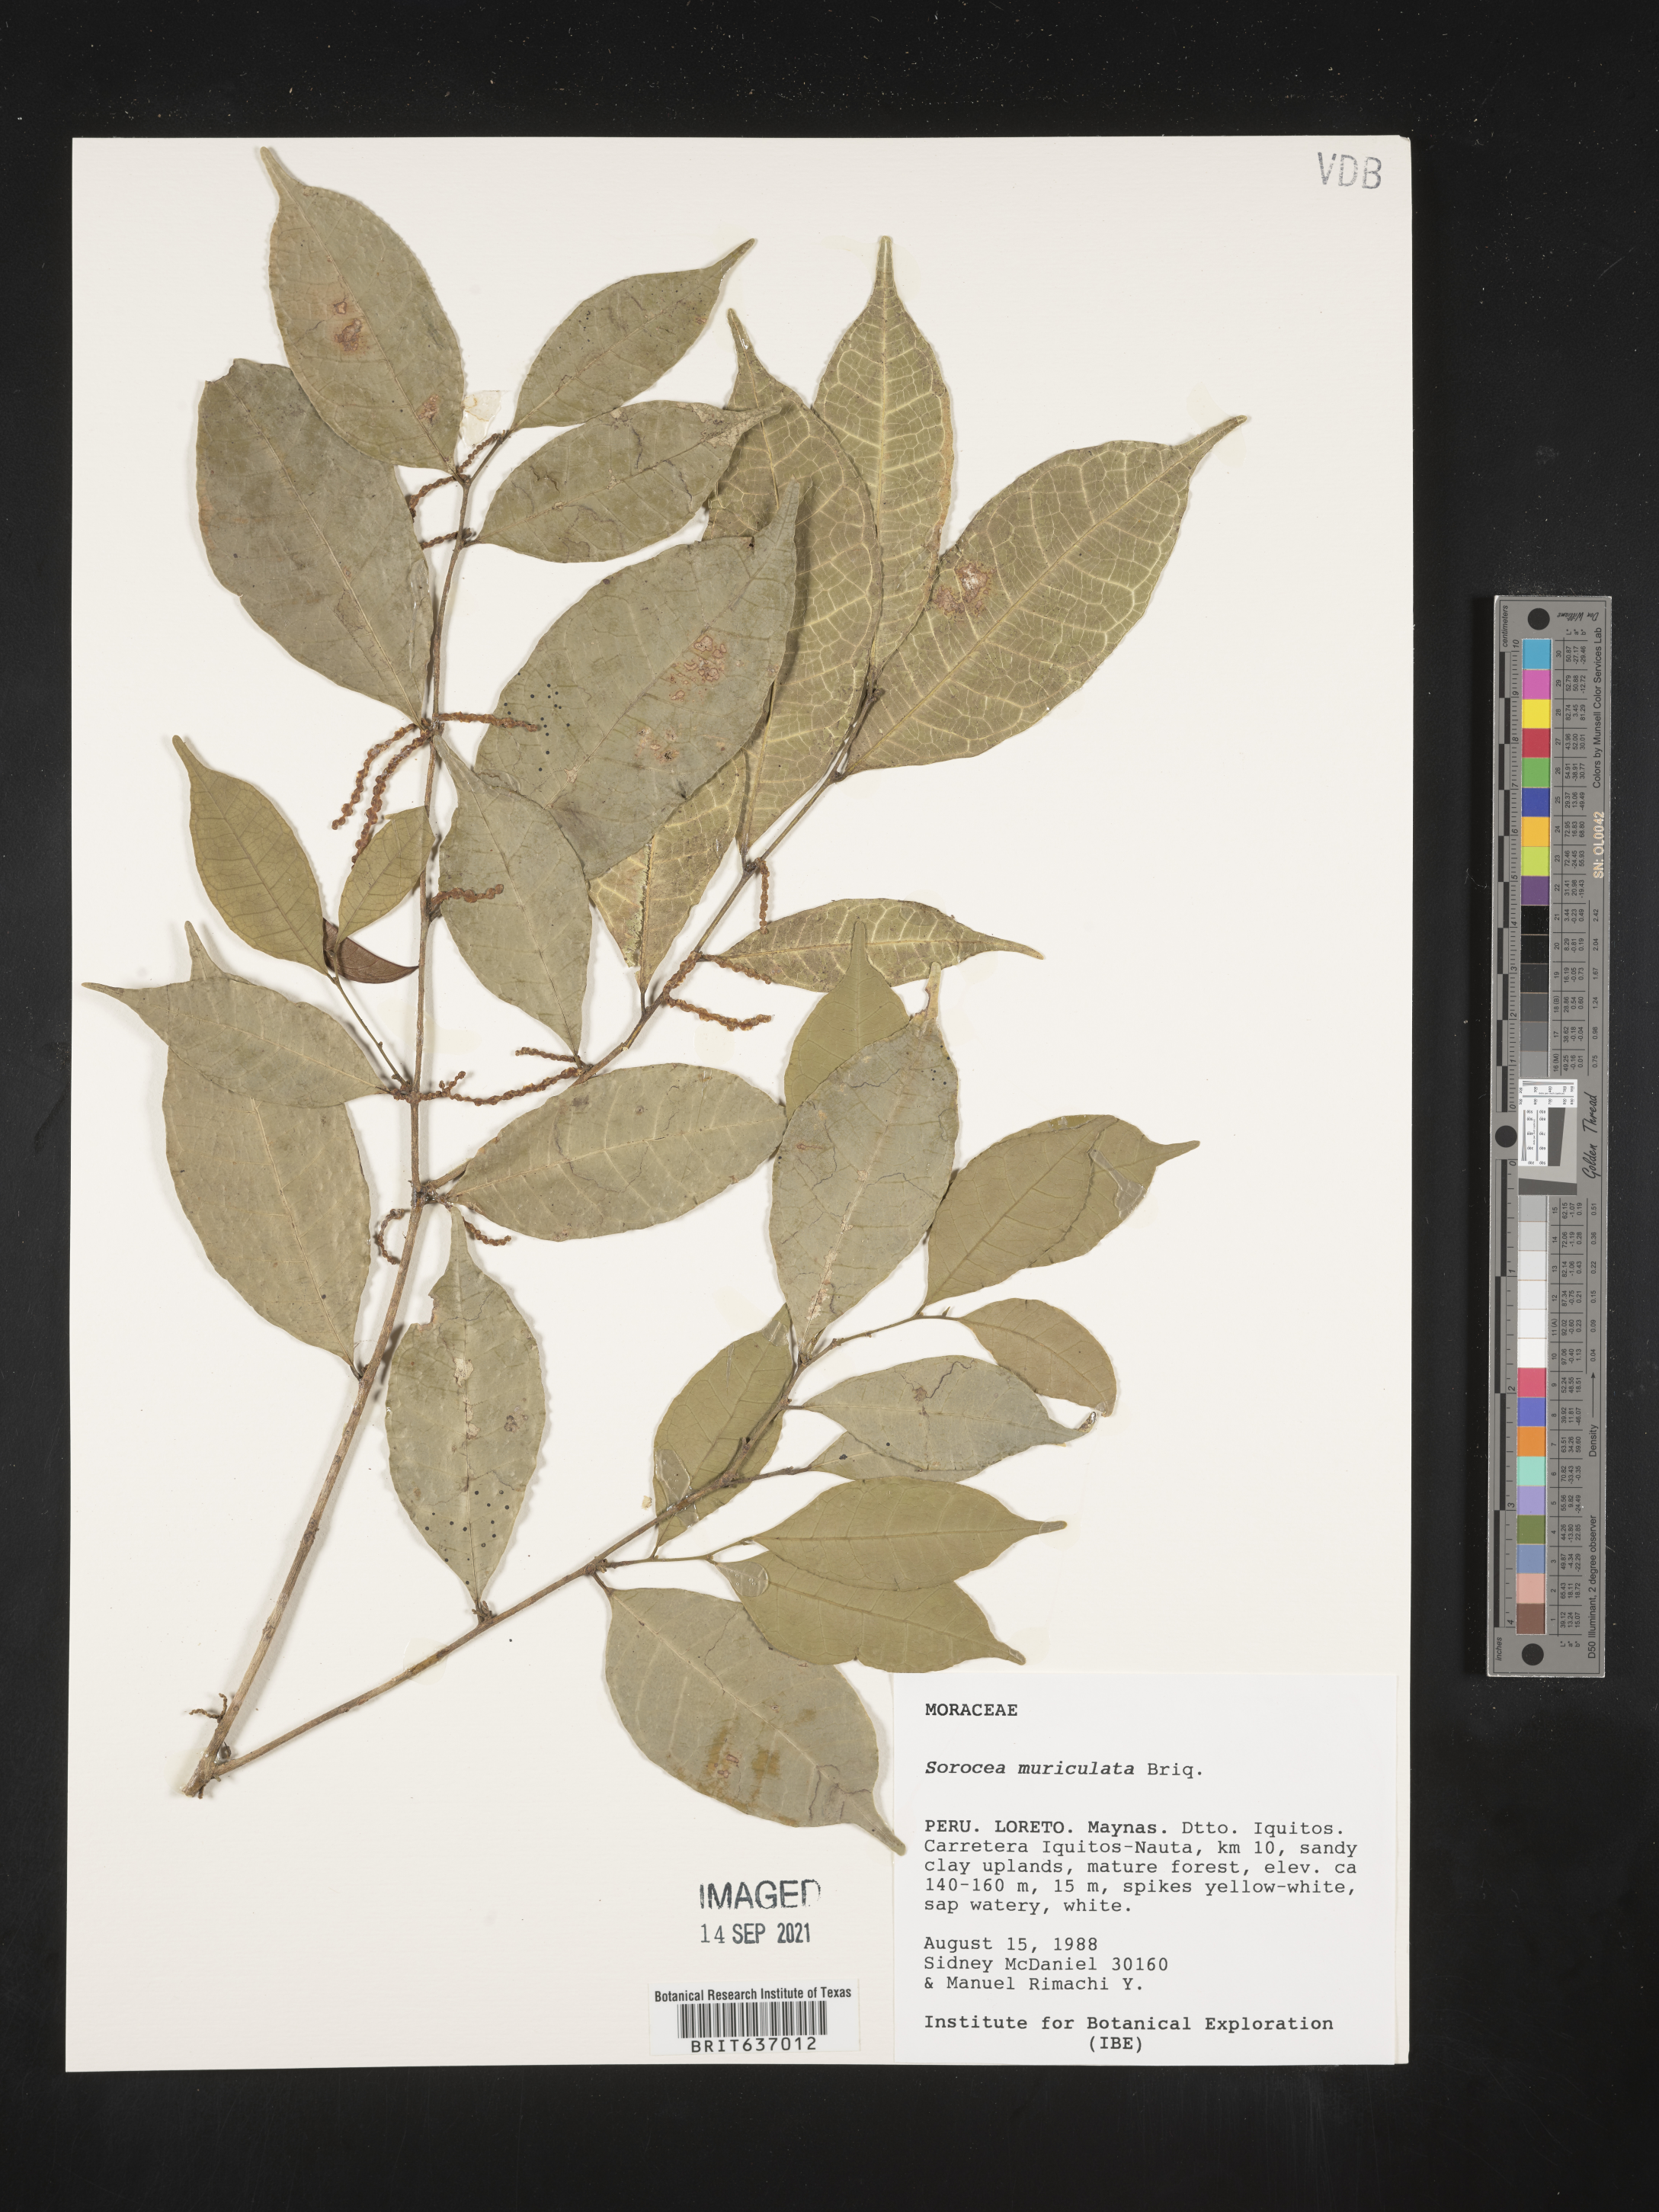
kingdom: Plantae
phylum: Tracheophyta
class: Magnoliopsida
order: Rosales
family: Moraceae
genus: Sorocea
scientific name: Sorocea
